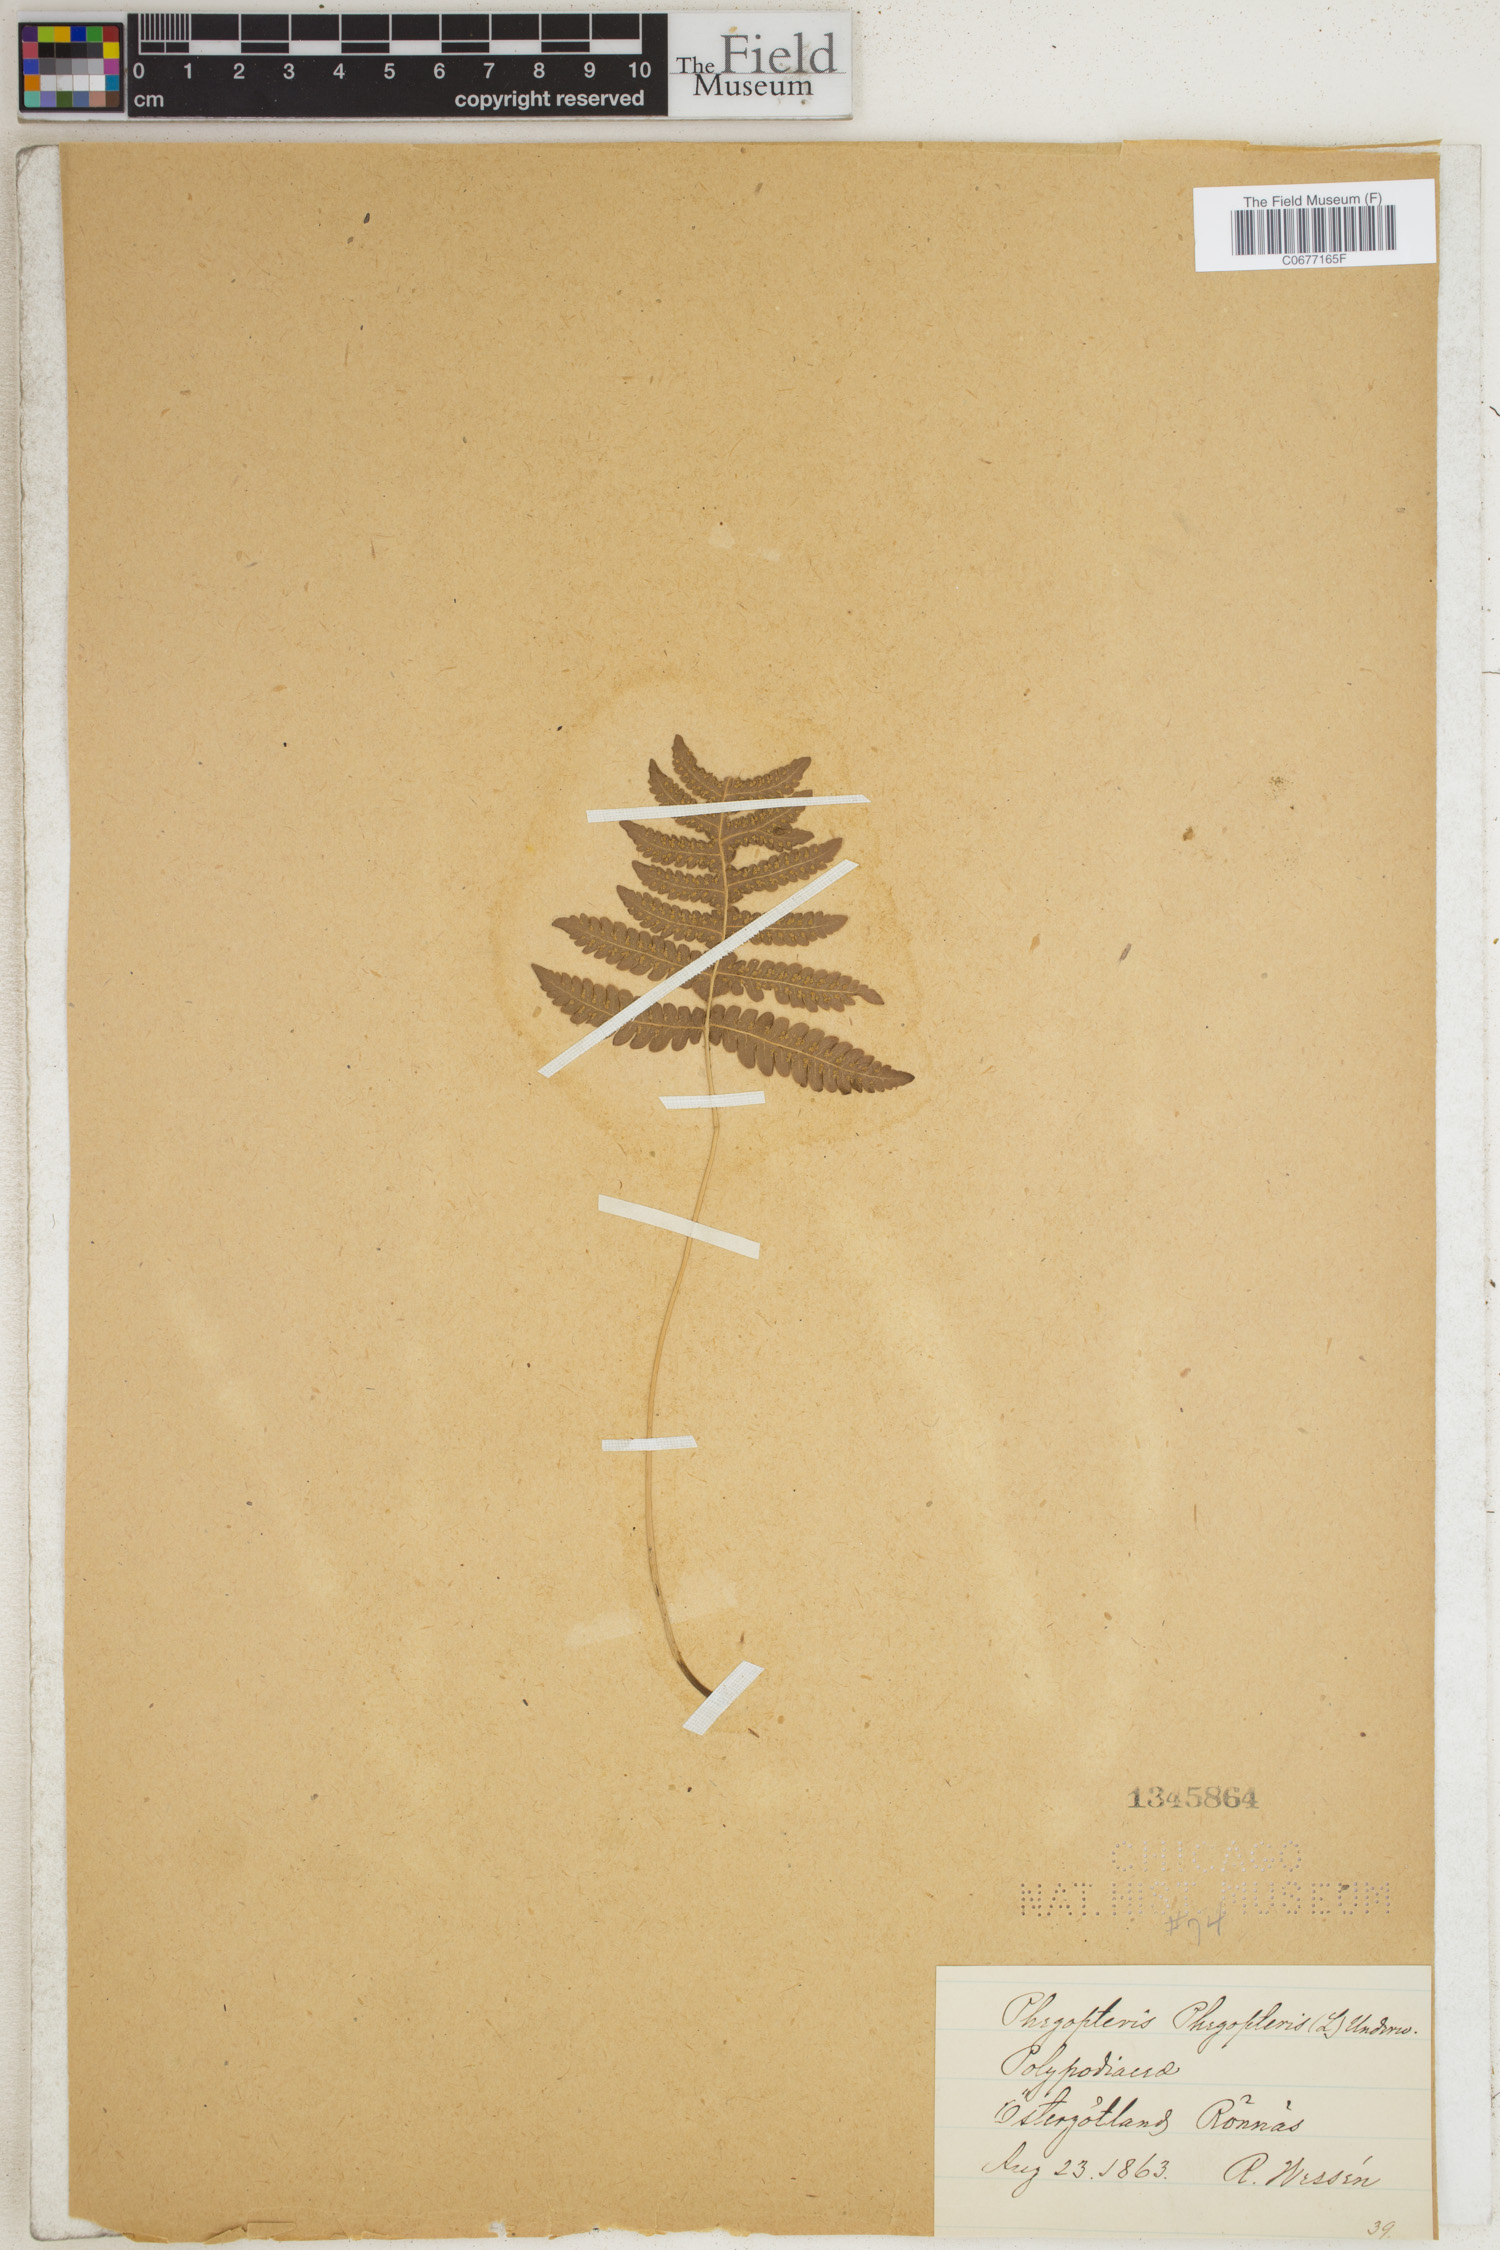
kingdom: Plantae
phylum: Tracheophyta
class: Polypodiopsida
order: Polypodiales
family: Thelypteridaceae
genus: Phegopteris
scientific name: Phegopteris connectilis
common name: Beech fern
